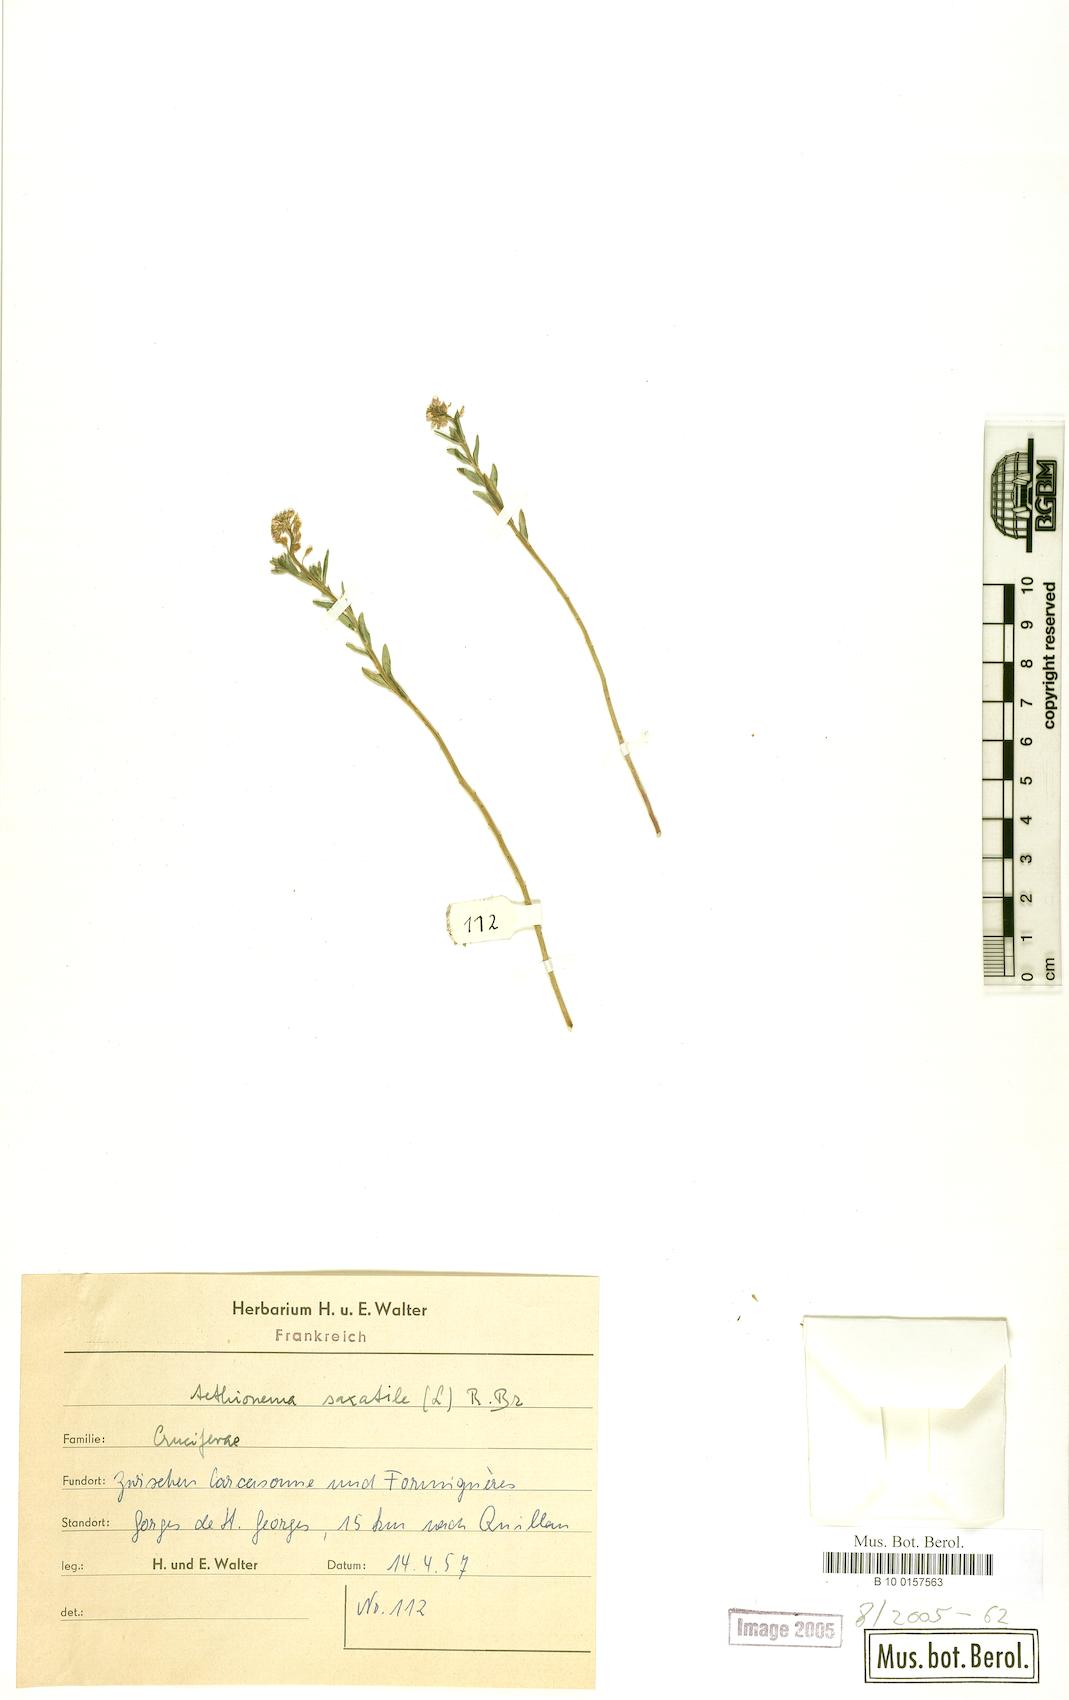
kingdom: Plantae
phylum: Tracheophyta
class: Magnoliopsida
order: Brassicales
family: Brassicaceae
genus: Aethionema
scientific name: Aethionema saxatile
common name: Burnt candytuft
